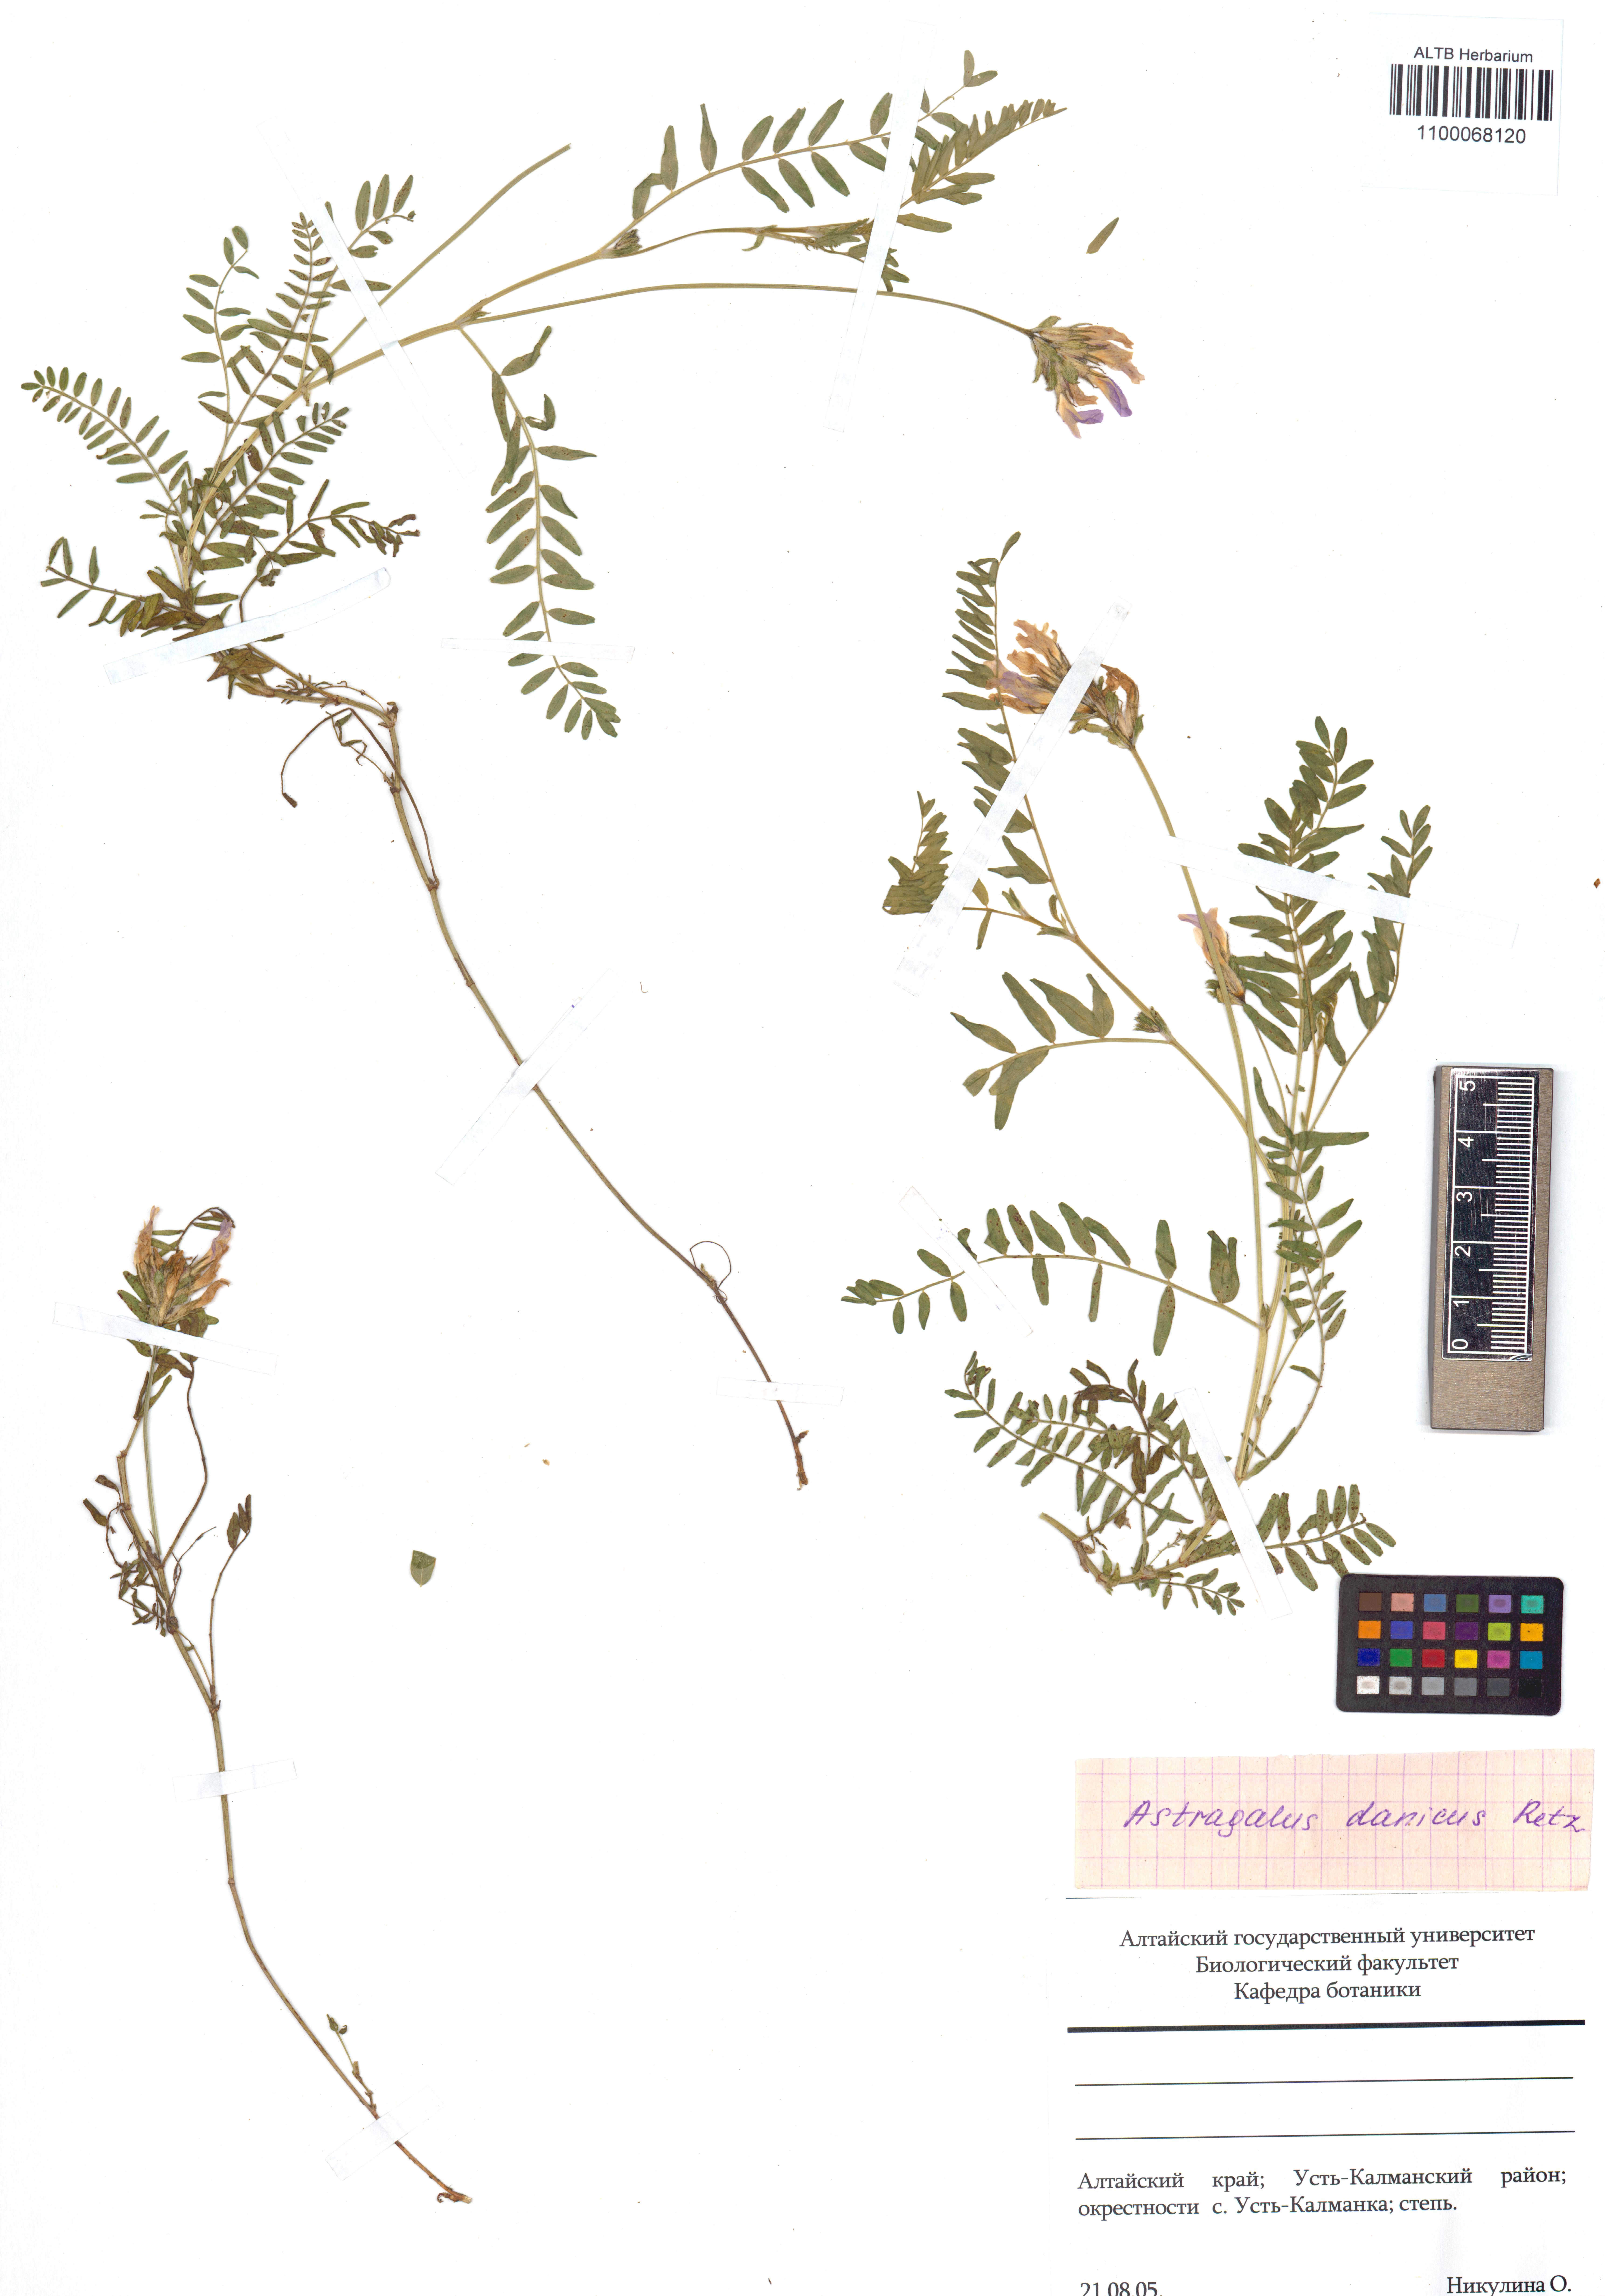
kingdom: Plantae
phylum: Tracheophyta
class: Magnoliopsida
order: Fabales
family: Fabaceae
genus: Astragalus
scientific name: Astragalus danicus
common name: Purple milk-vetch
